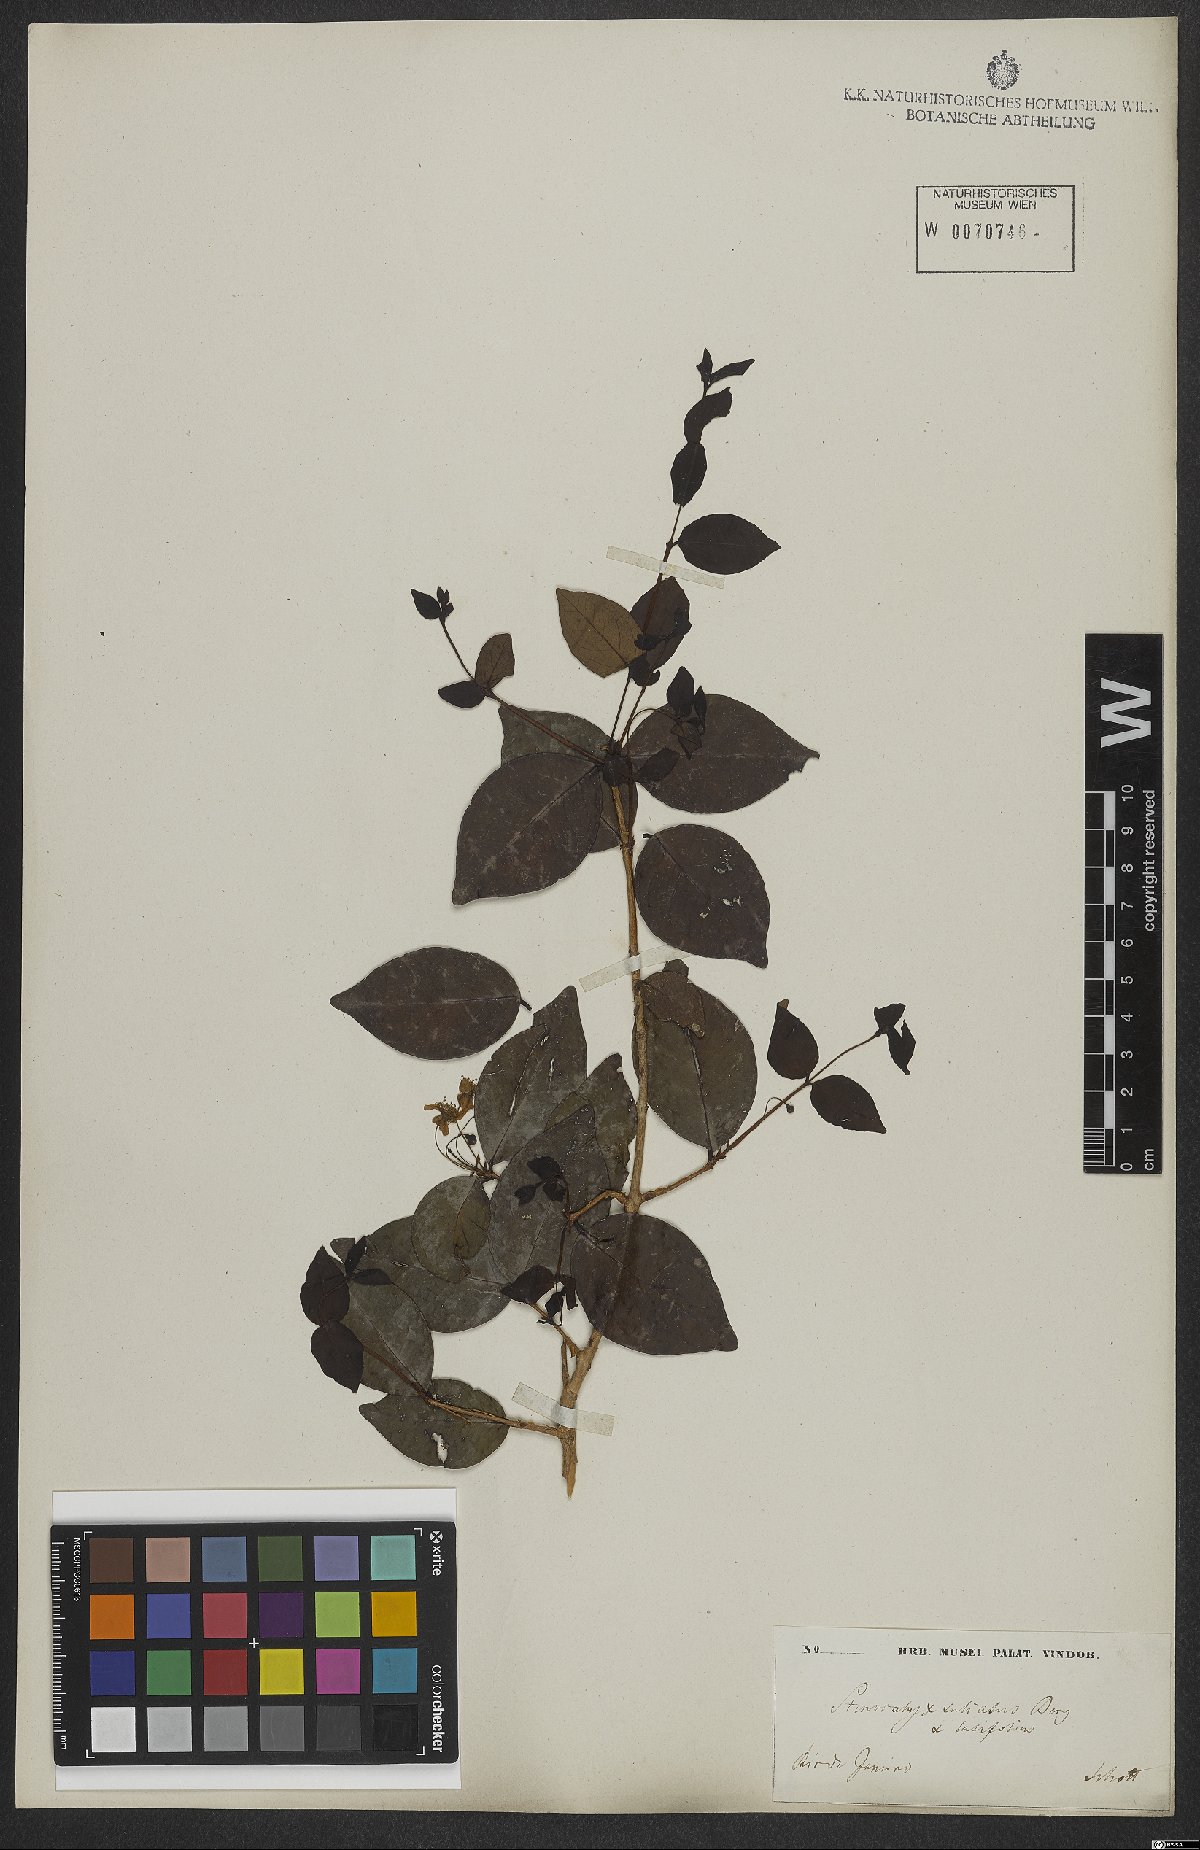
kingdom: Plantae
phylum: Tracheophyta
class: Magnoliopsida
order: Myrtales
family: Myrtaceae
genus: Eugenia
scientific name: Eugenia sulcata
